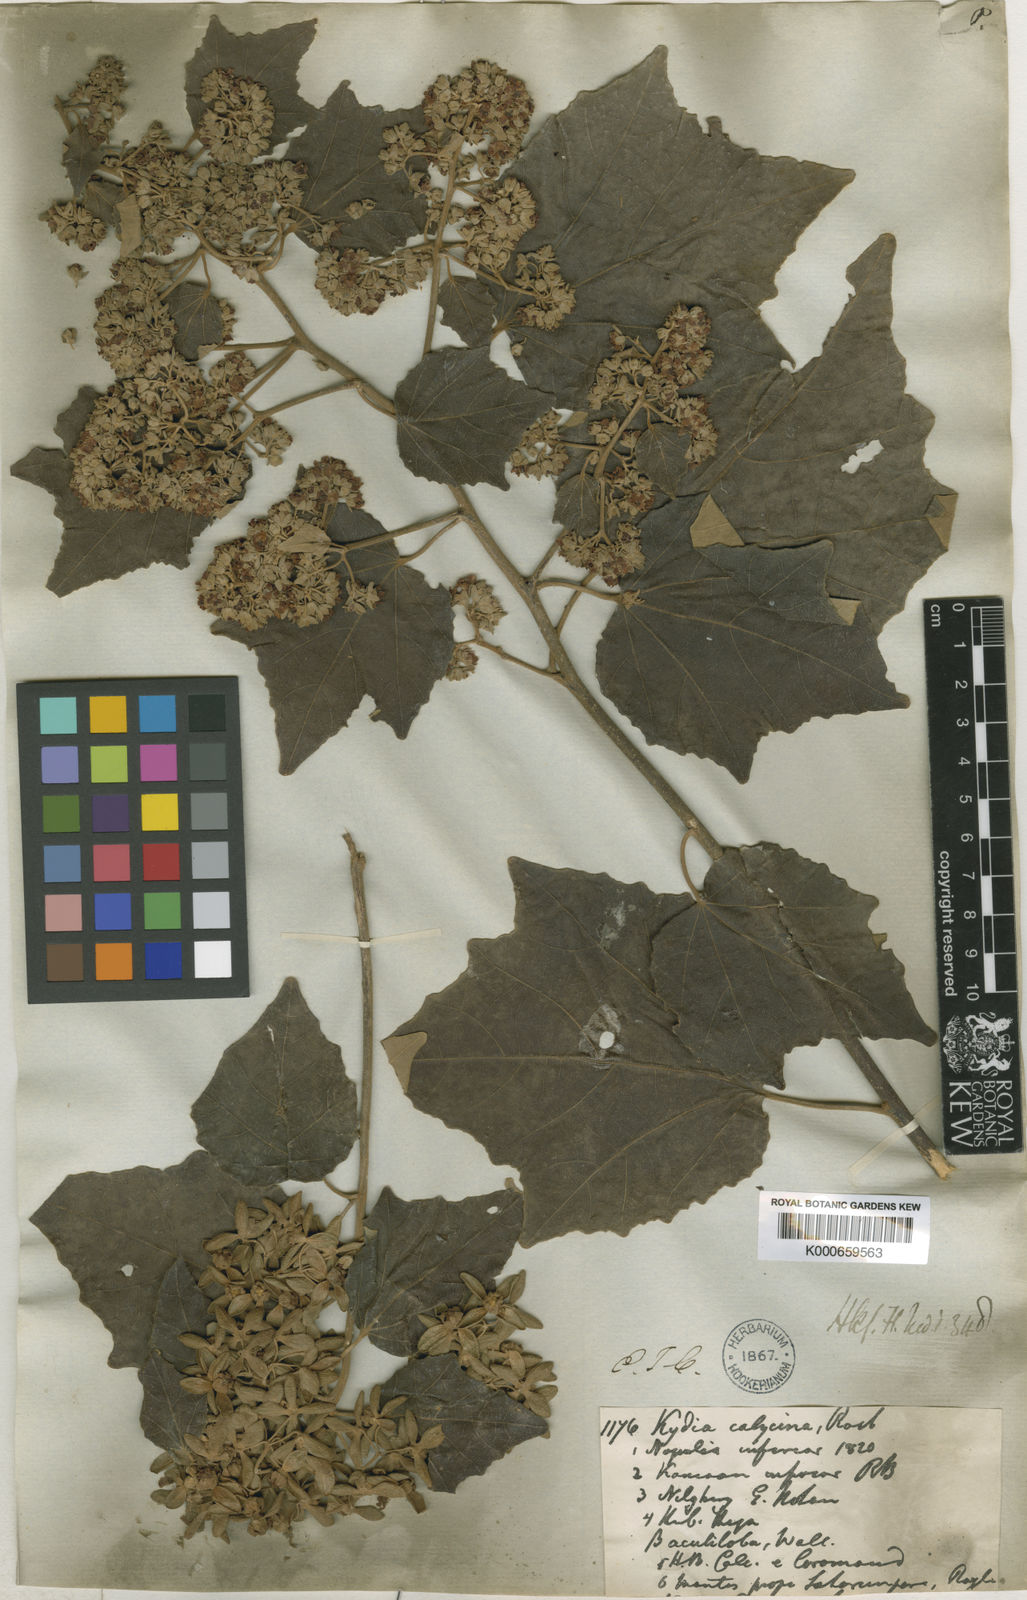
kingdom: Plantae
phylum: Tracheophyta
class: Magnoliopsida
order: Malvales
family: Malvaceae
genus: Kydia
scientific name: Kydia calycina
